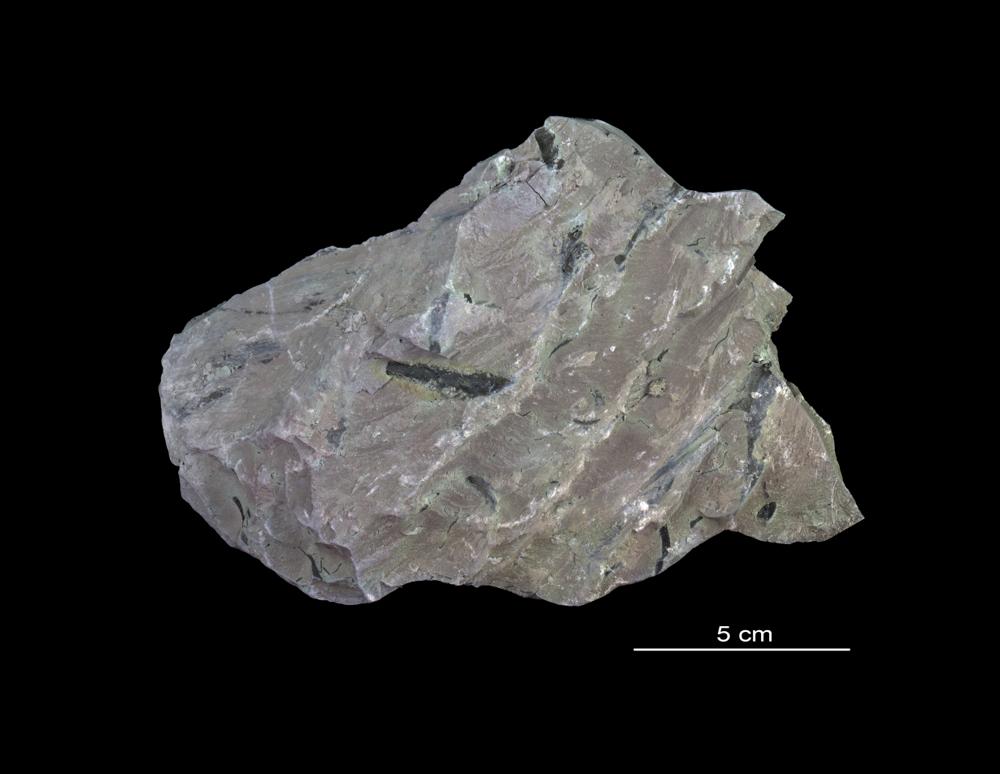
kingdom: Chromista
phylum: Foraminifera
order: Astrorhizida
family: Hyperamminidae
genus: Platysolenites
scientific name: Platysolenites
